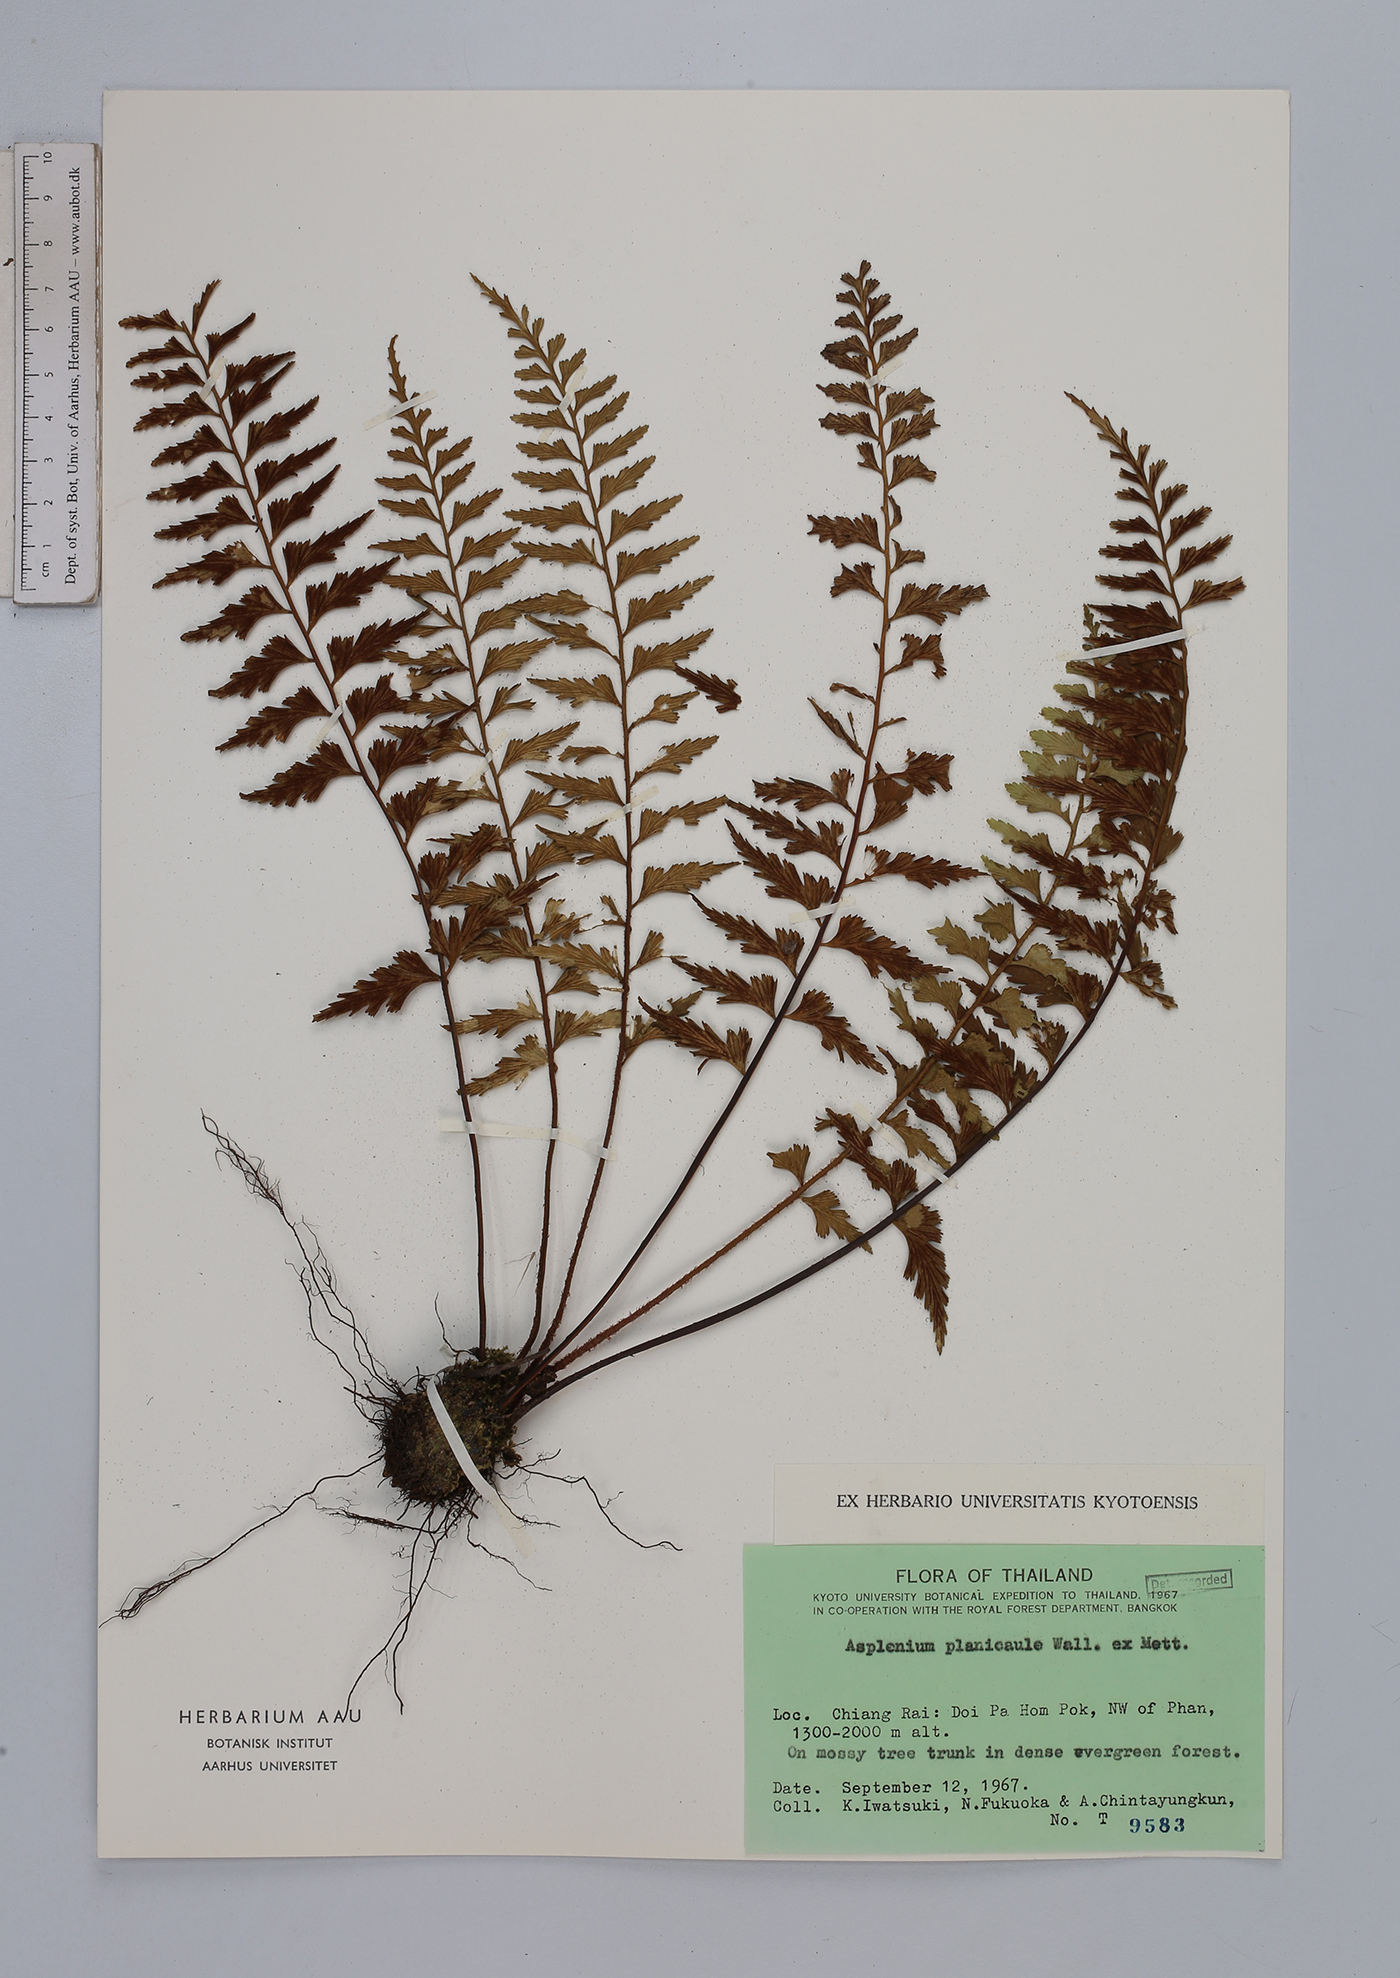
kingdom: Plantae
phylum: Tracheophyta
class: Polypodiopsida
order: Polypodiales
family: Aspleniaceae
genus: Asplenium
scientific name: Asplenium lividum
